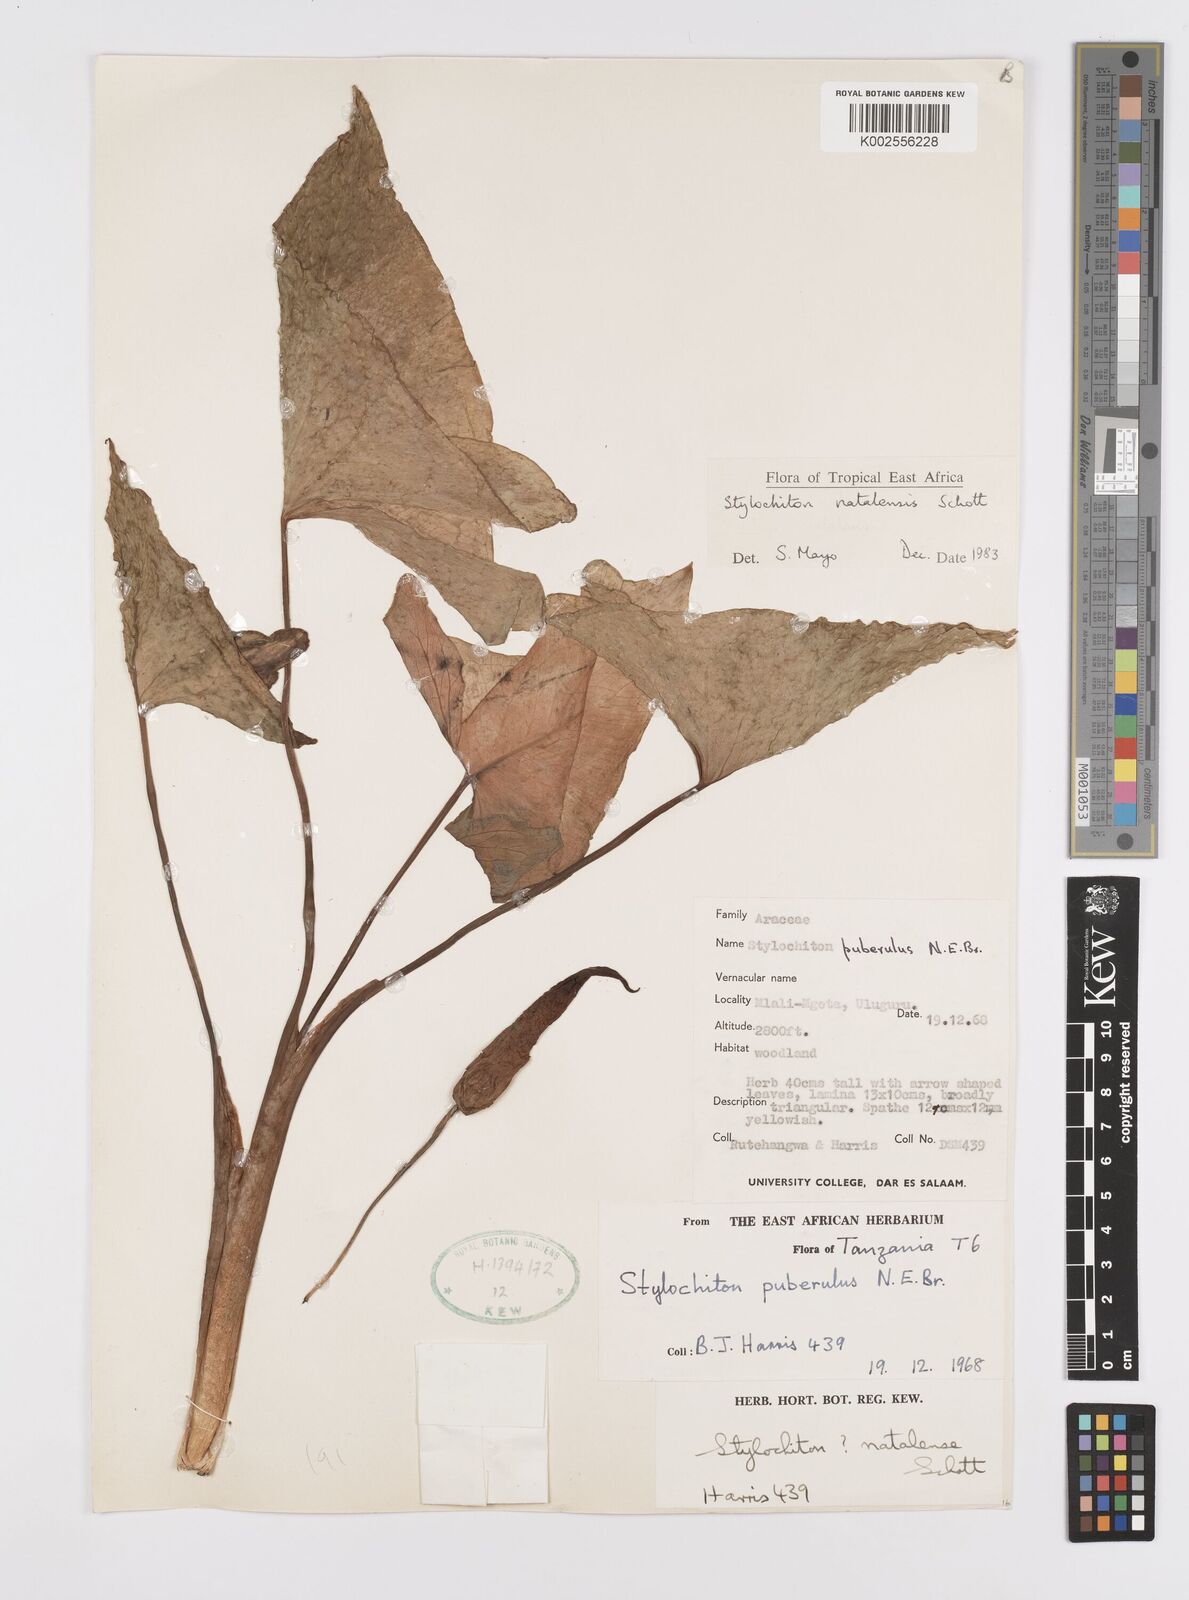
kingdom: Plantae
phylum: Tracheophyta
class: Liliopsida
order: Alismatales
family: Araceae
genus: Stylochaeton
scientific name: Stylochaeton natalense
